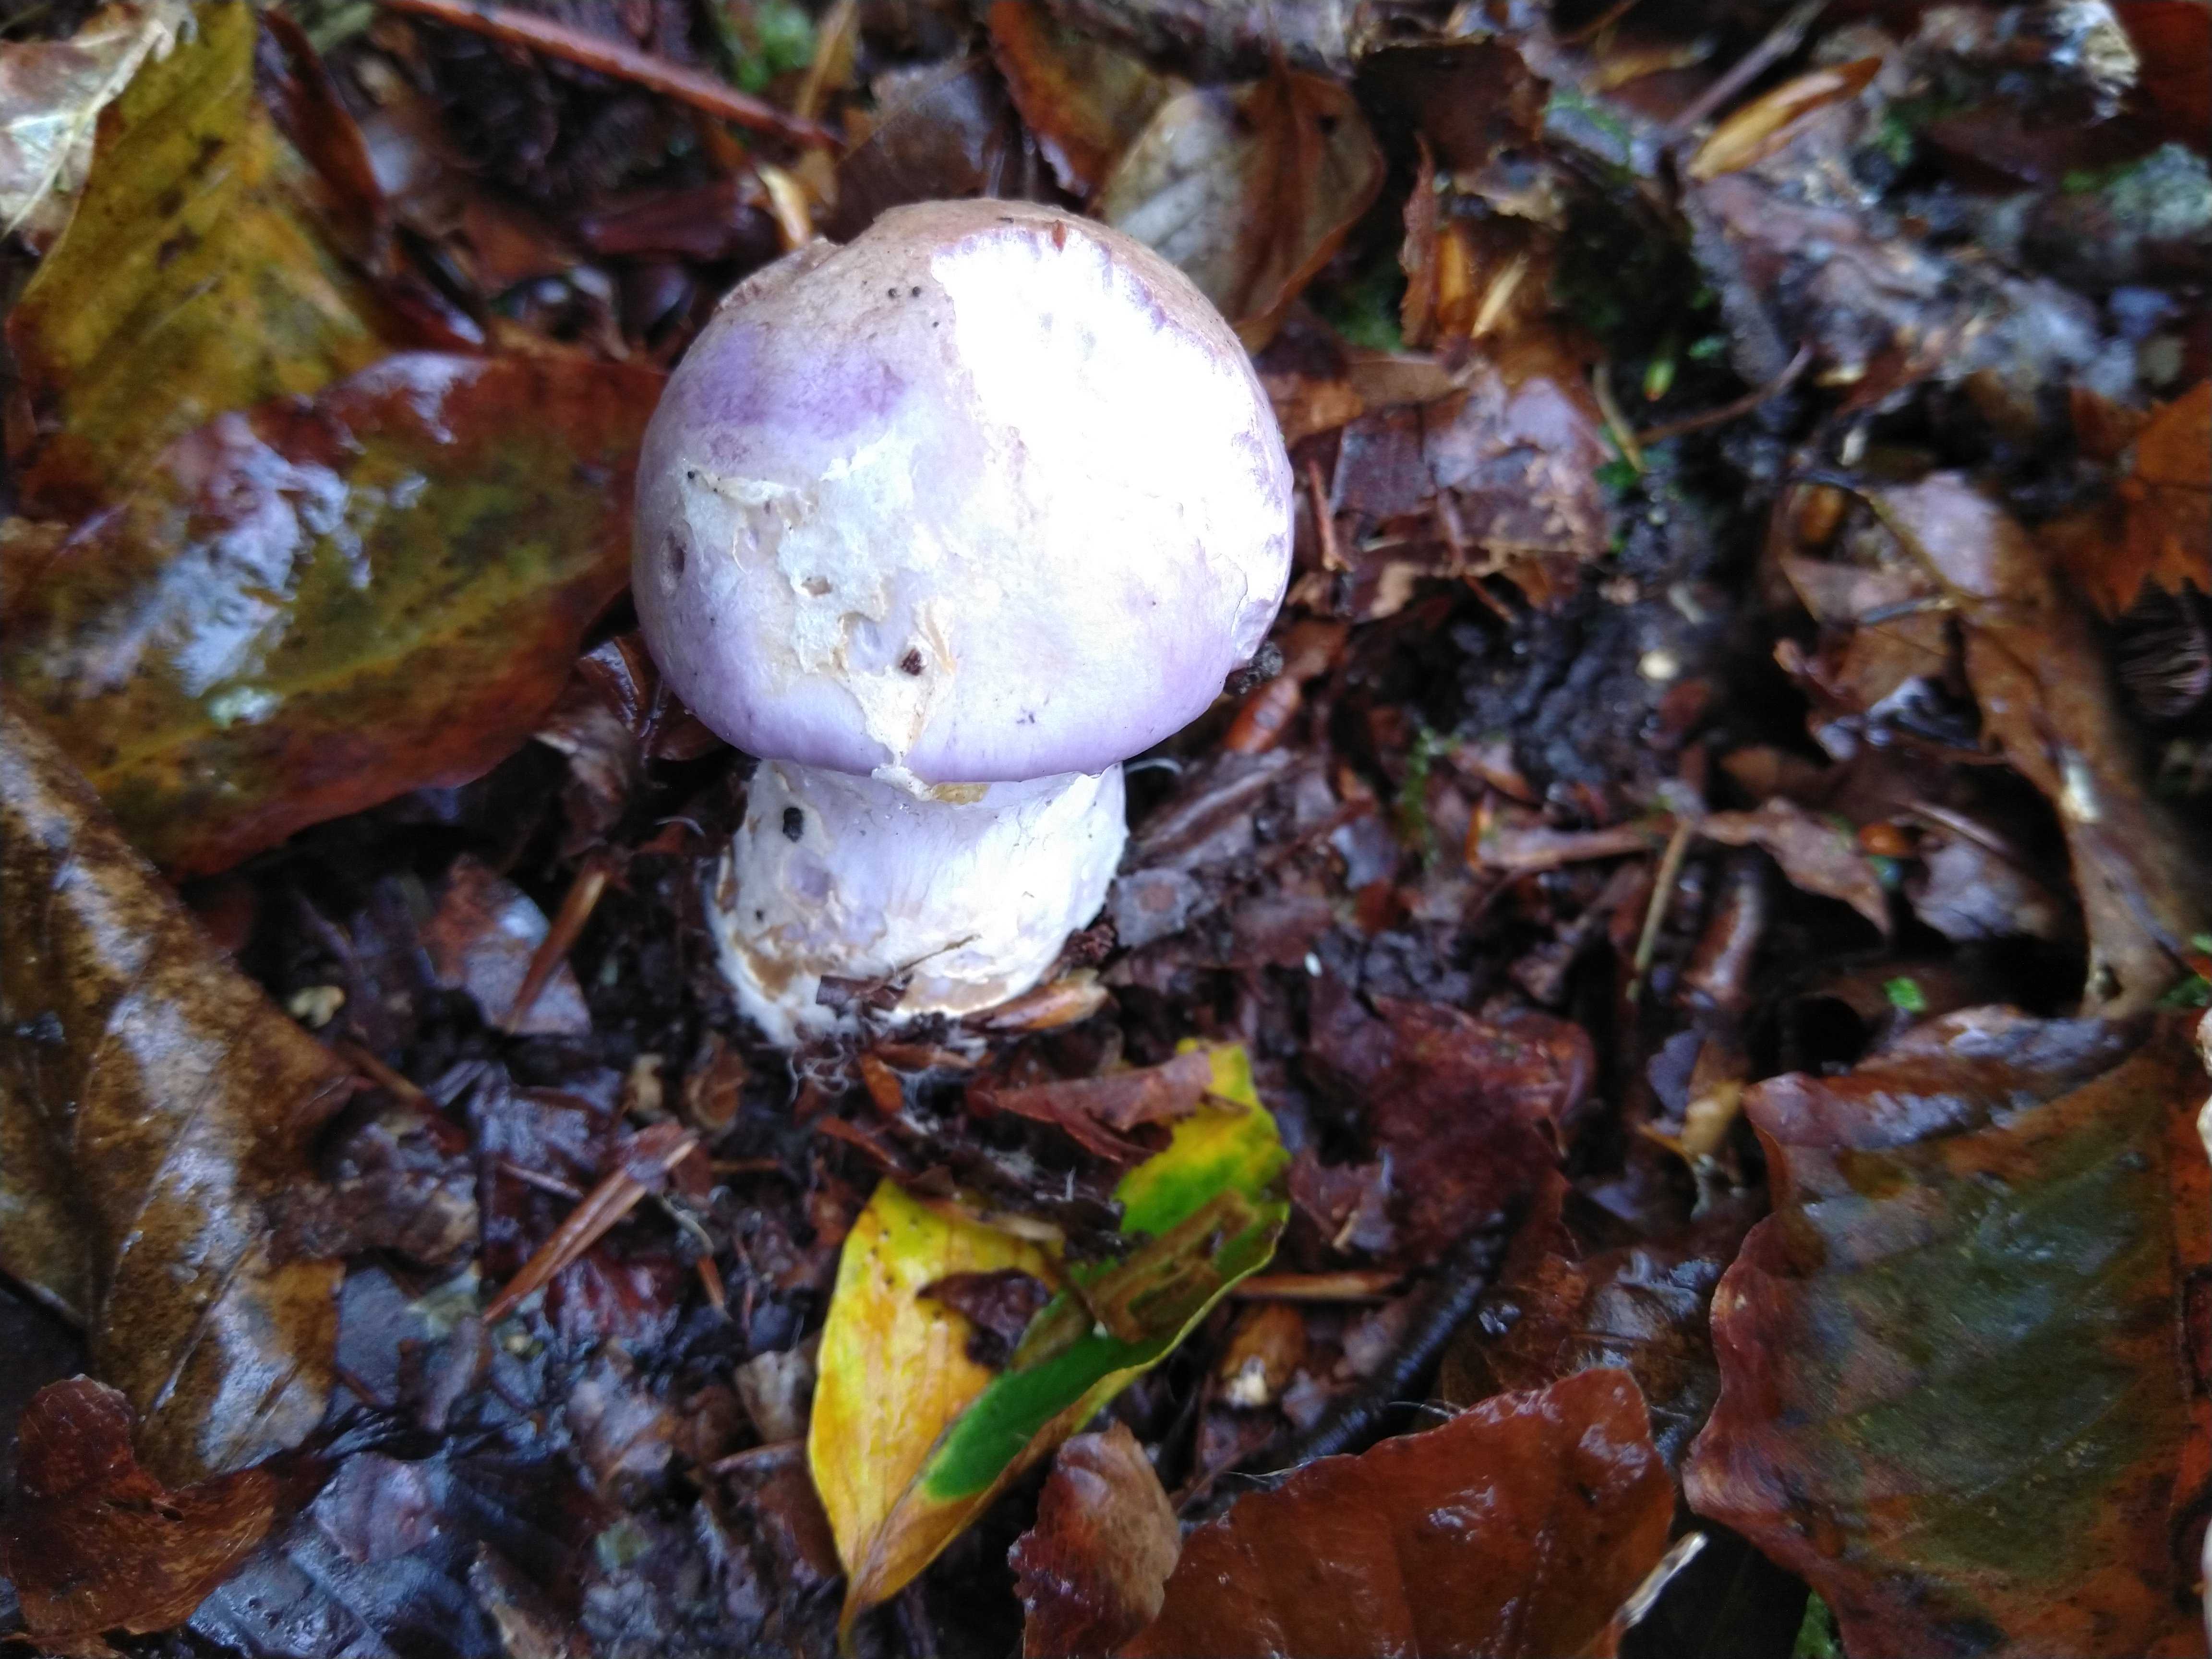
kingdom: Fungi
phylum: Basidiomycota
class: Agaricomycetes
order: Agaricales
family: Cortinariaceae
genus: Cortinarius
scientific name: Cortinarius
